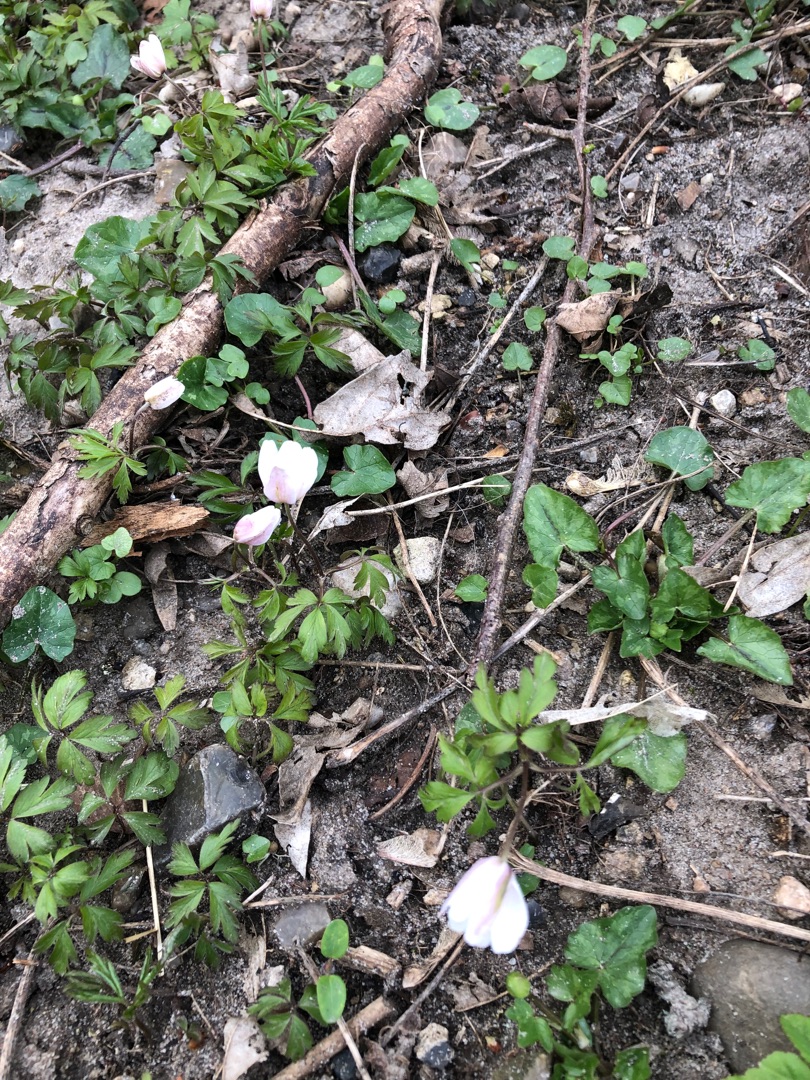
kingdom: Plantae
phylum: Tracheophyta
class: Magnoliopsida
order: Ranunculales
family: Ranunculaceae
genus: Anemone
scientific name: Anemone nemorosa
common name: Hvid anemone
